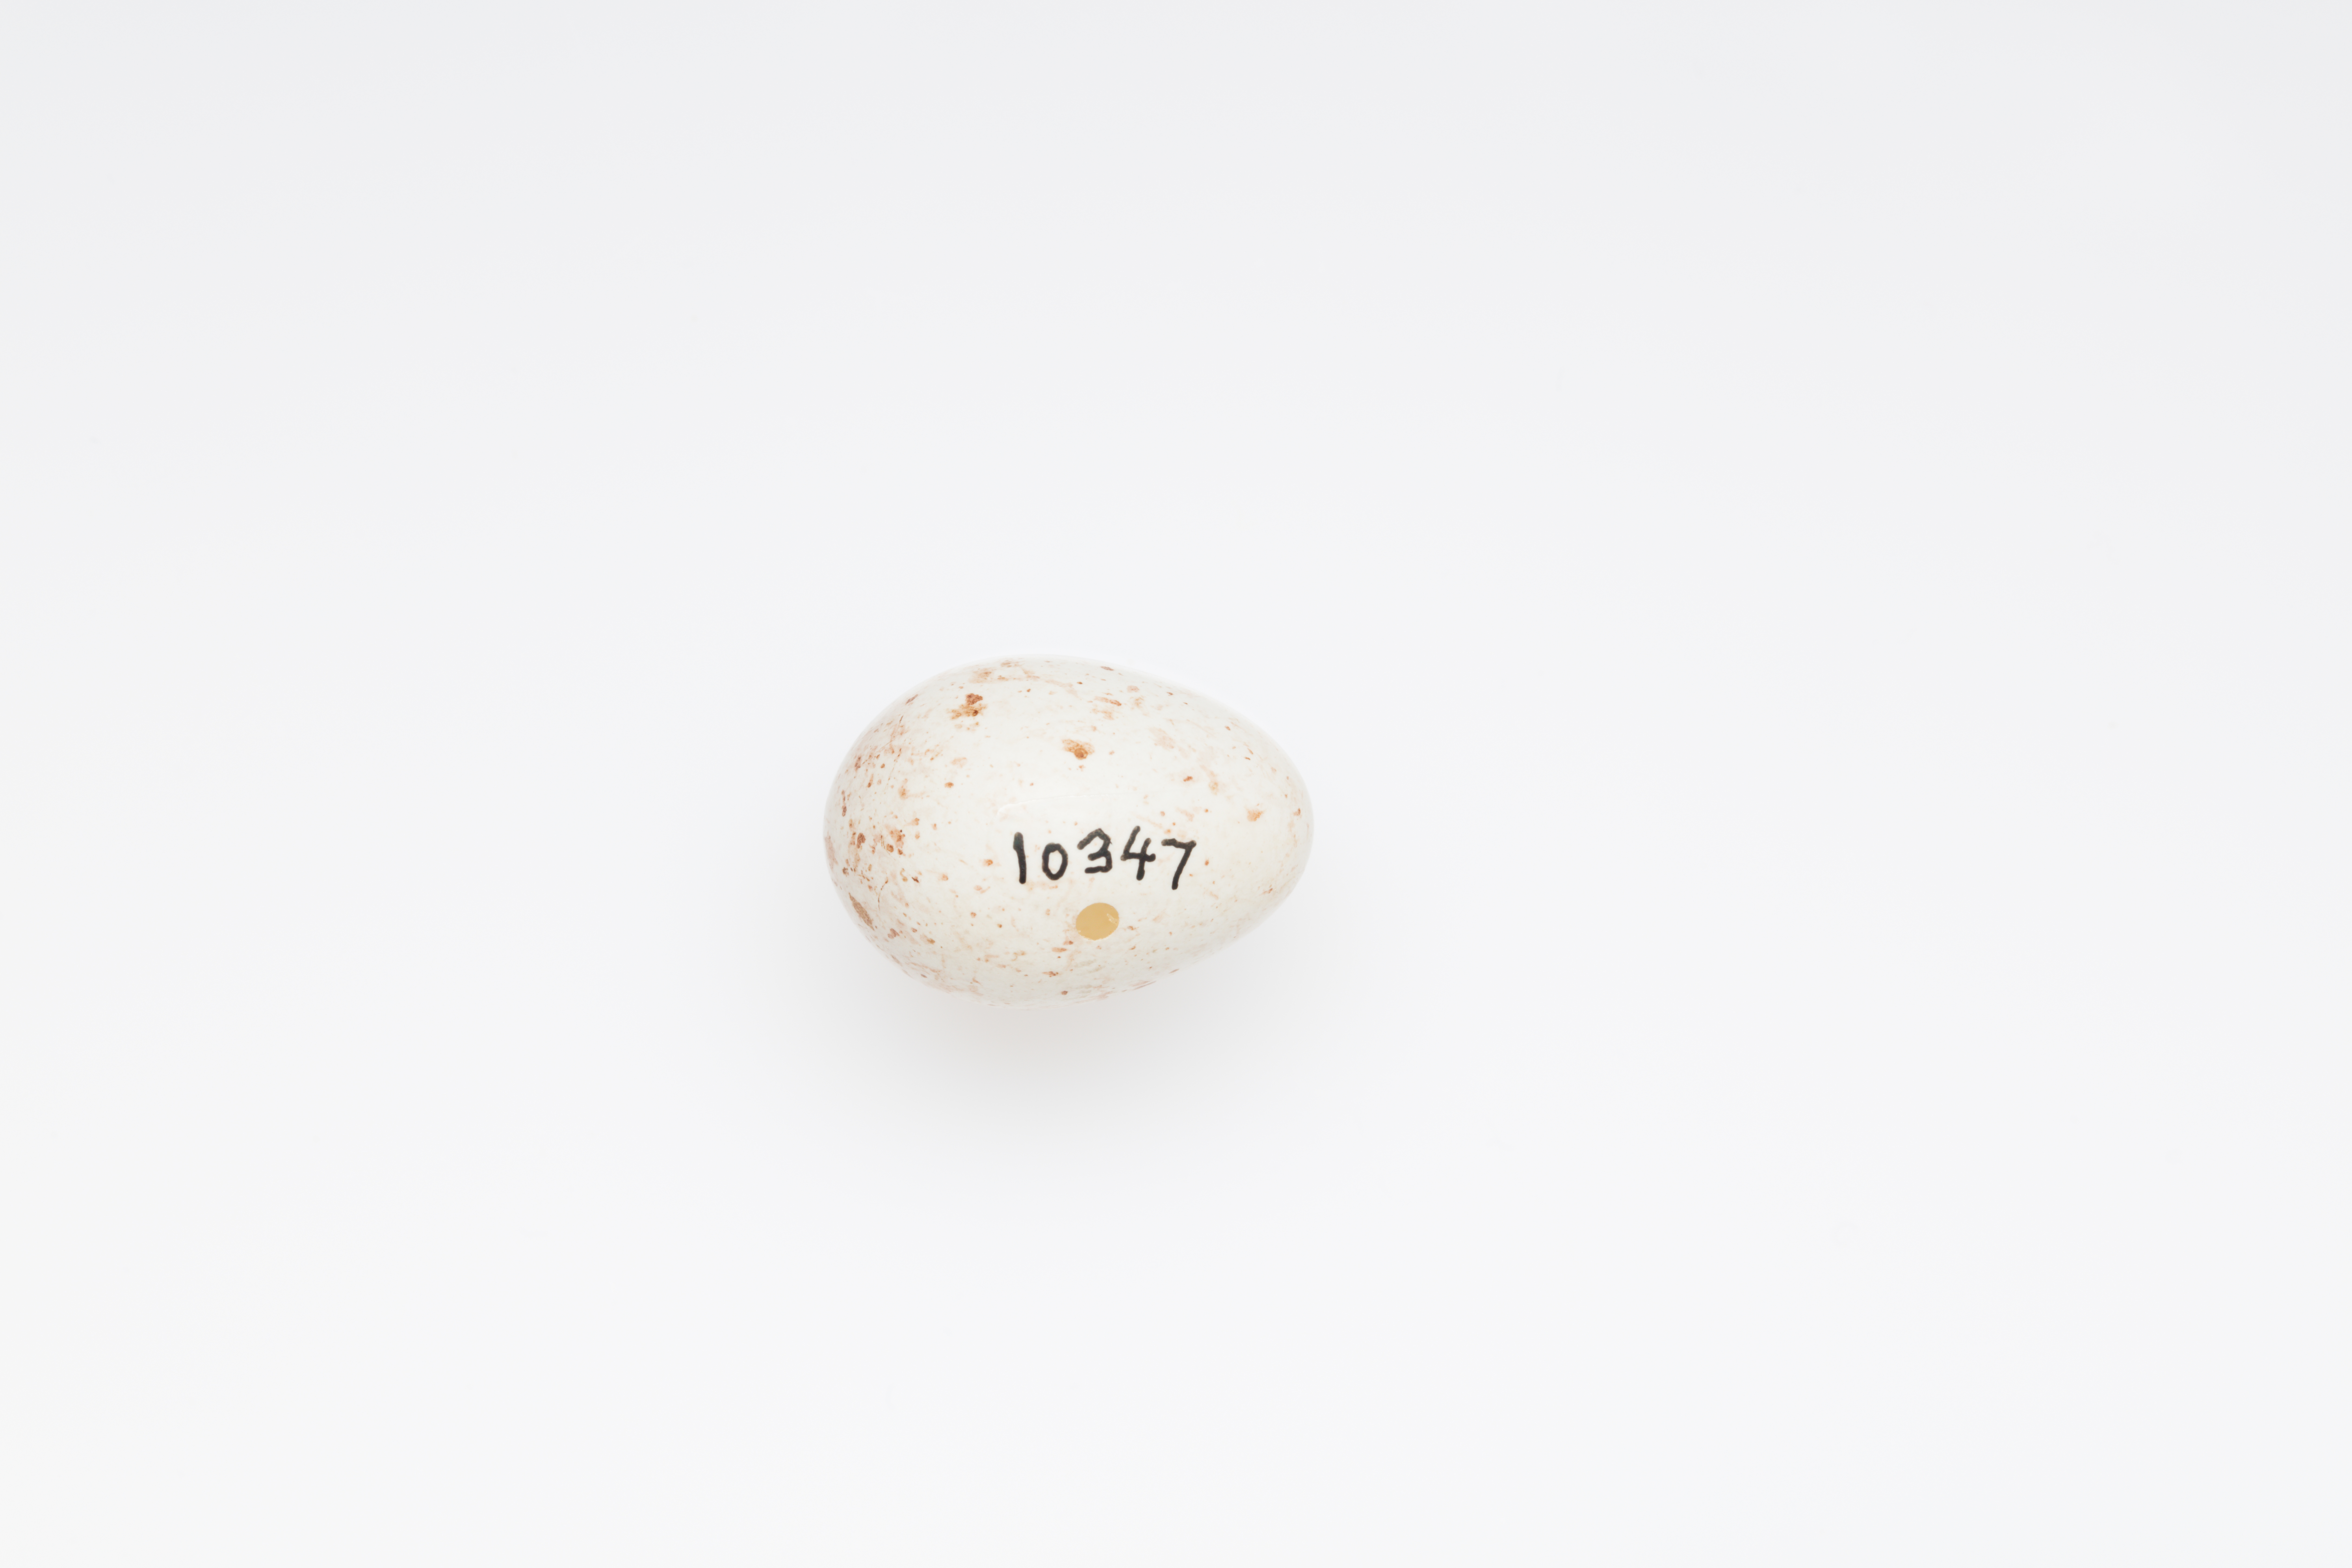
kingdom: Plantae
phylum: Tracheophyta
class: Liliopsida
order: Poales
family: Poaceae
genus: Chloris
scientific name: Chloris chloris
